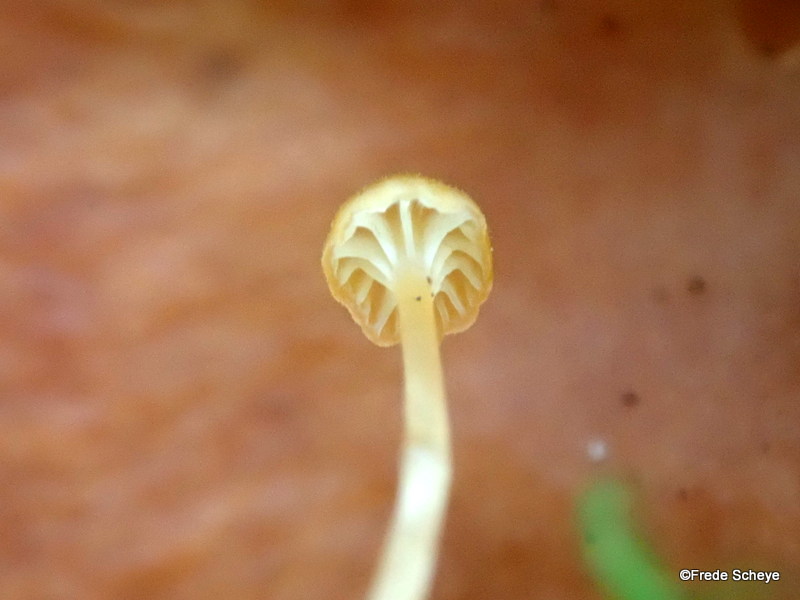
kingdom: Fungi
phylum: Basidiomycota
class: Agaricomycetes
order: Hymenochaetales
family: Rickenellaceae
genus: Rickenella
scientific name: Rickenella fibula
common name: orange mosnavlehat
